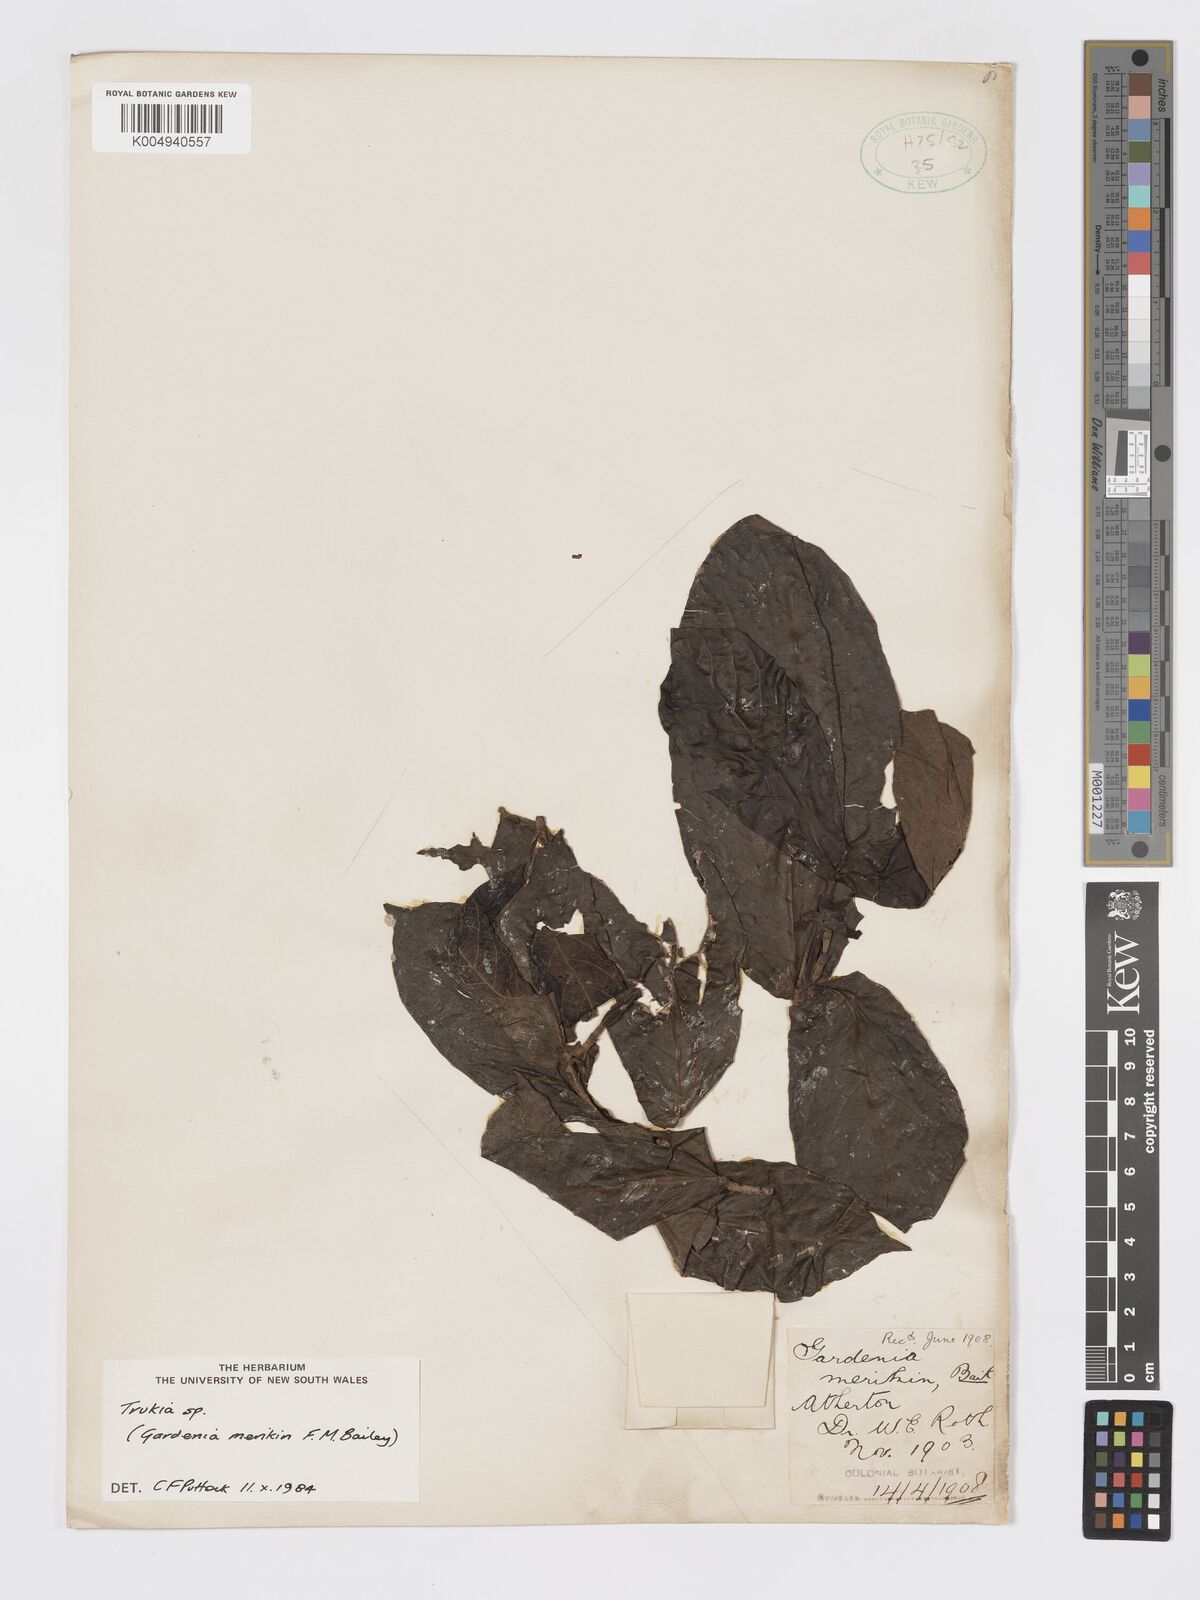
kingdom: Plantae
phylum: Tracheophyta
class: Magnoliopsida
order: Gentianales
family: Rubiaceae
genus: Atractocarpus
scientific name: Atractocarpus merikin
